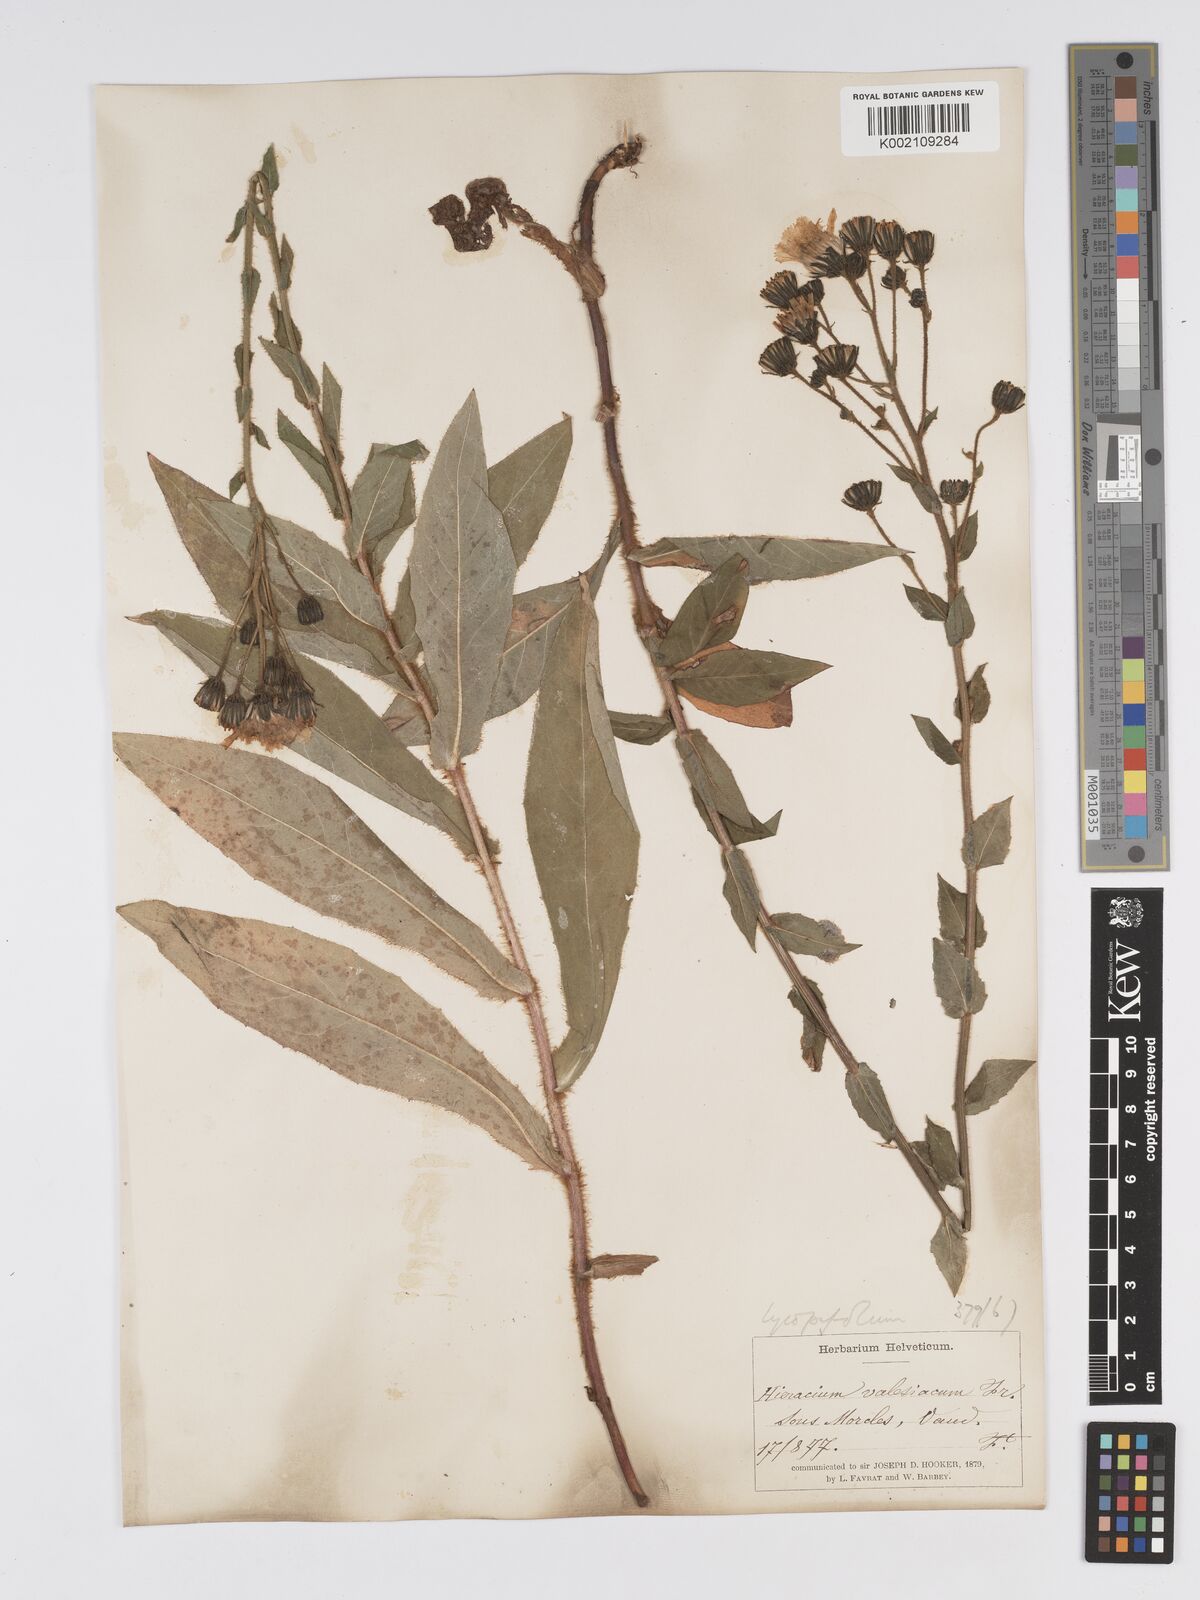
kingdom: Plantae
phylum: Tracheophyta
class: Magnoliopsida
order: Asterales
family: Asteraceae
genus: Hieracium
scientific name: Hieracium lycopifolium
